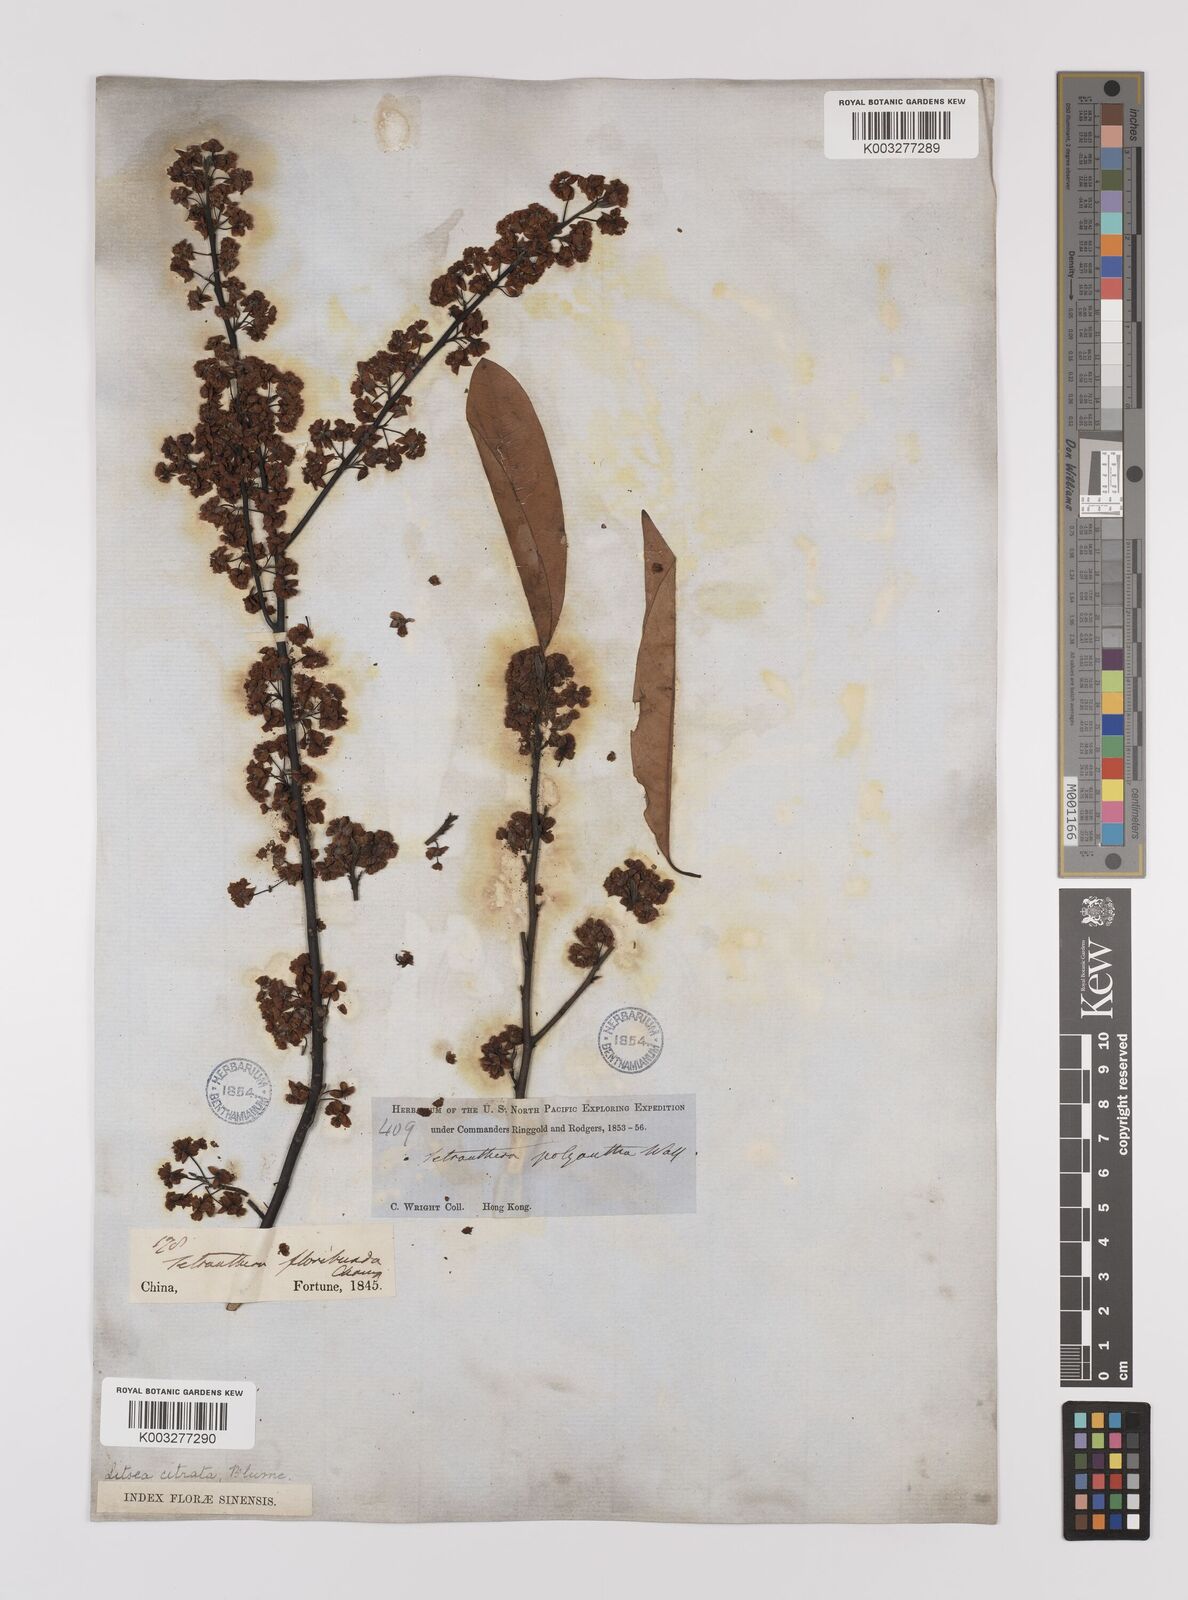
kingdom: Plantae
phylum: Tracheophyta
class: Magnoliopsida
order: Laurales
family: Lauraceae
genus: Litsea
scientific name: Litsea cubeba
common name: Mountain-pepper
